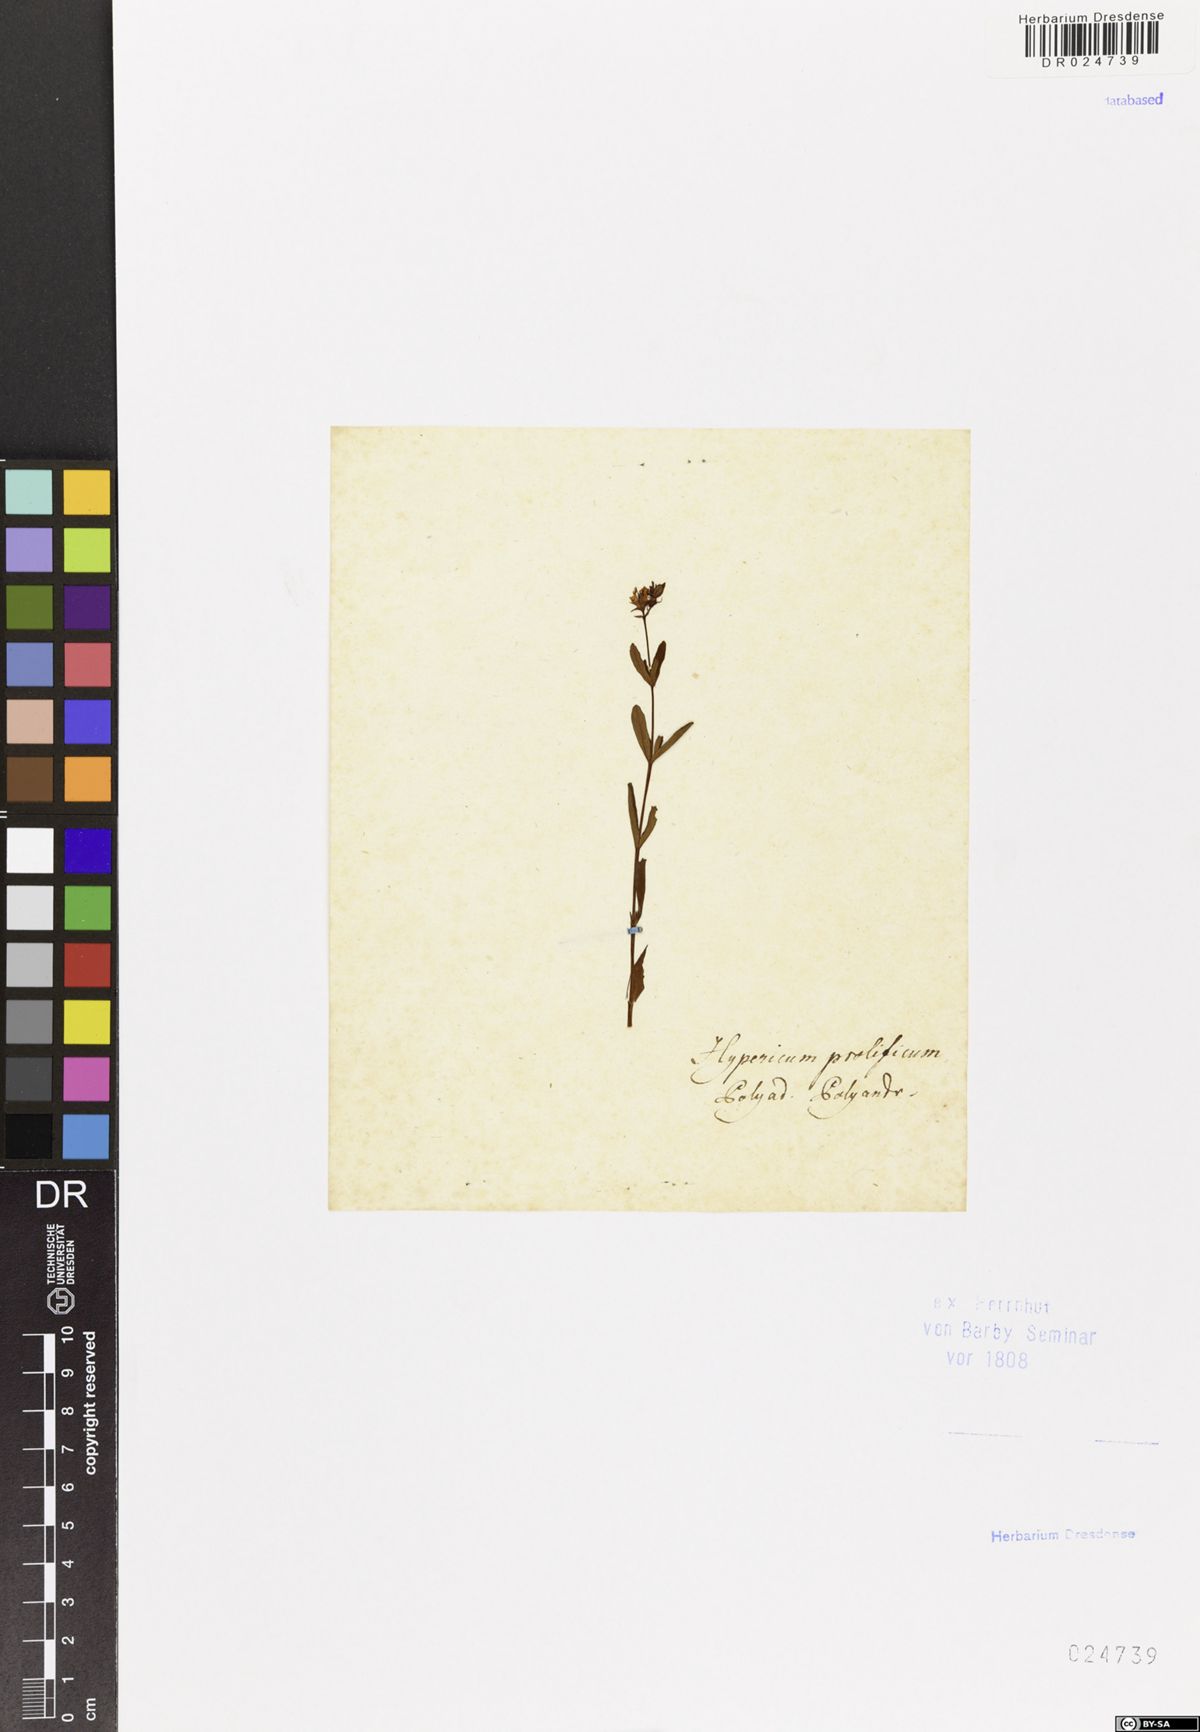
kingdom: Plantae
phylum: Tracheophyta
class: Magnoliopsida
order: Malpighiales
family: Hypericaceae
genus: Hypericum
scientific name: Hypericum prolificum
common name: Shrubby st. john's-wort
